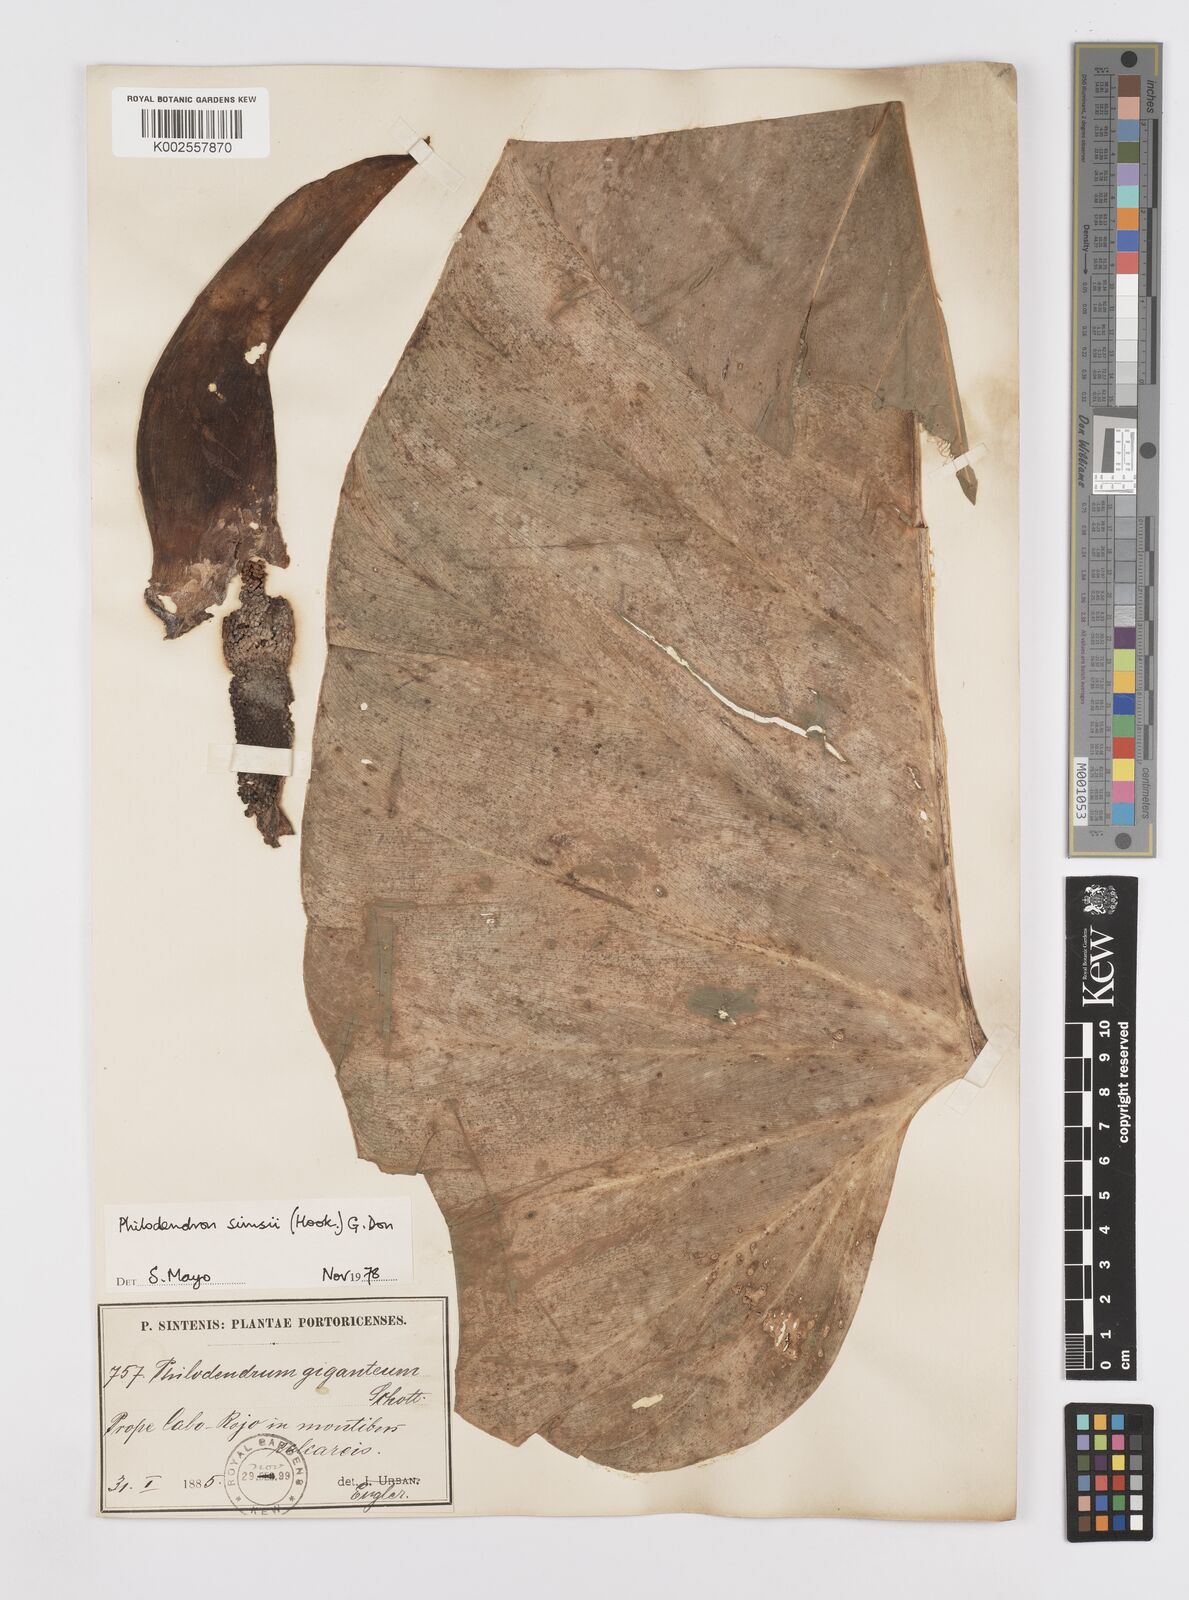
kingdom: Plantae
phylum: Tracheophyta
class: Liliopsida
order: Alismatales
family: Araceae
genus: Philodendron
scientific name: Philodendron
